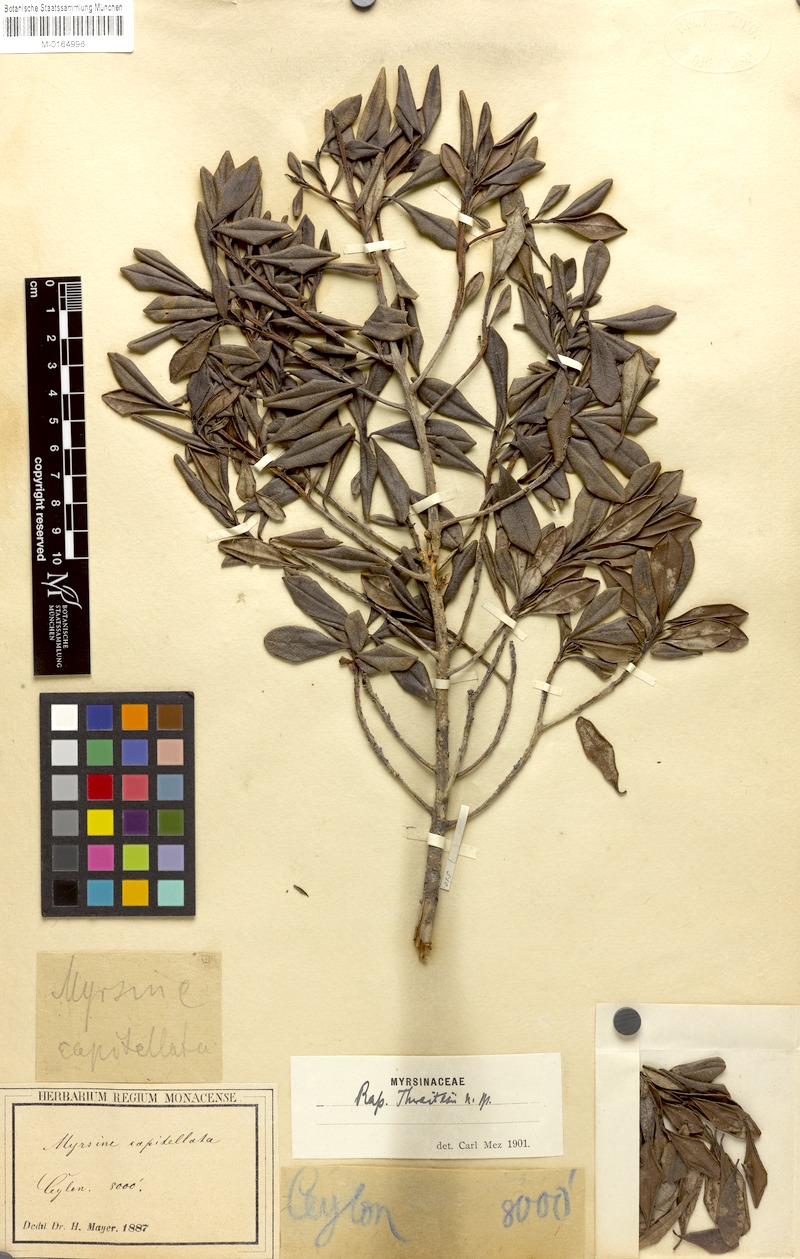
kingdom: Plantae
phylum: Tracheophyta
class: Magnoliopsida
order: Ericales
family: Primulaceae
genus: Myrsine
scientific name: Myrsine thwaitesii
